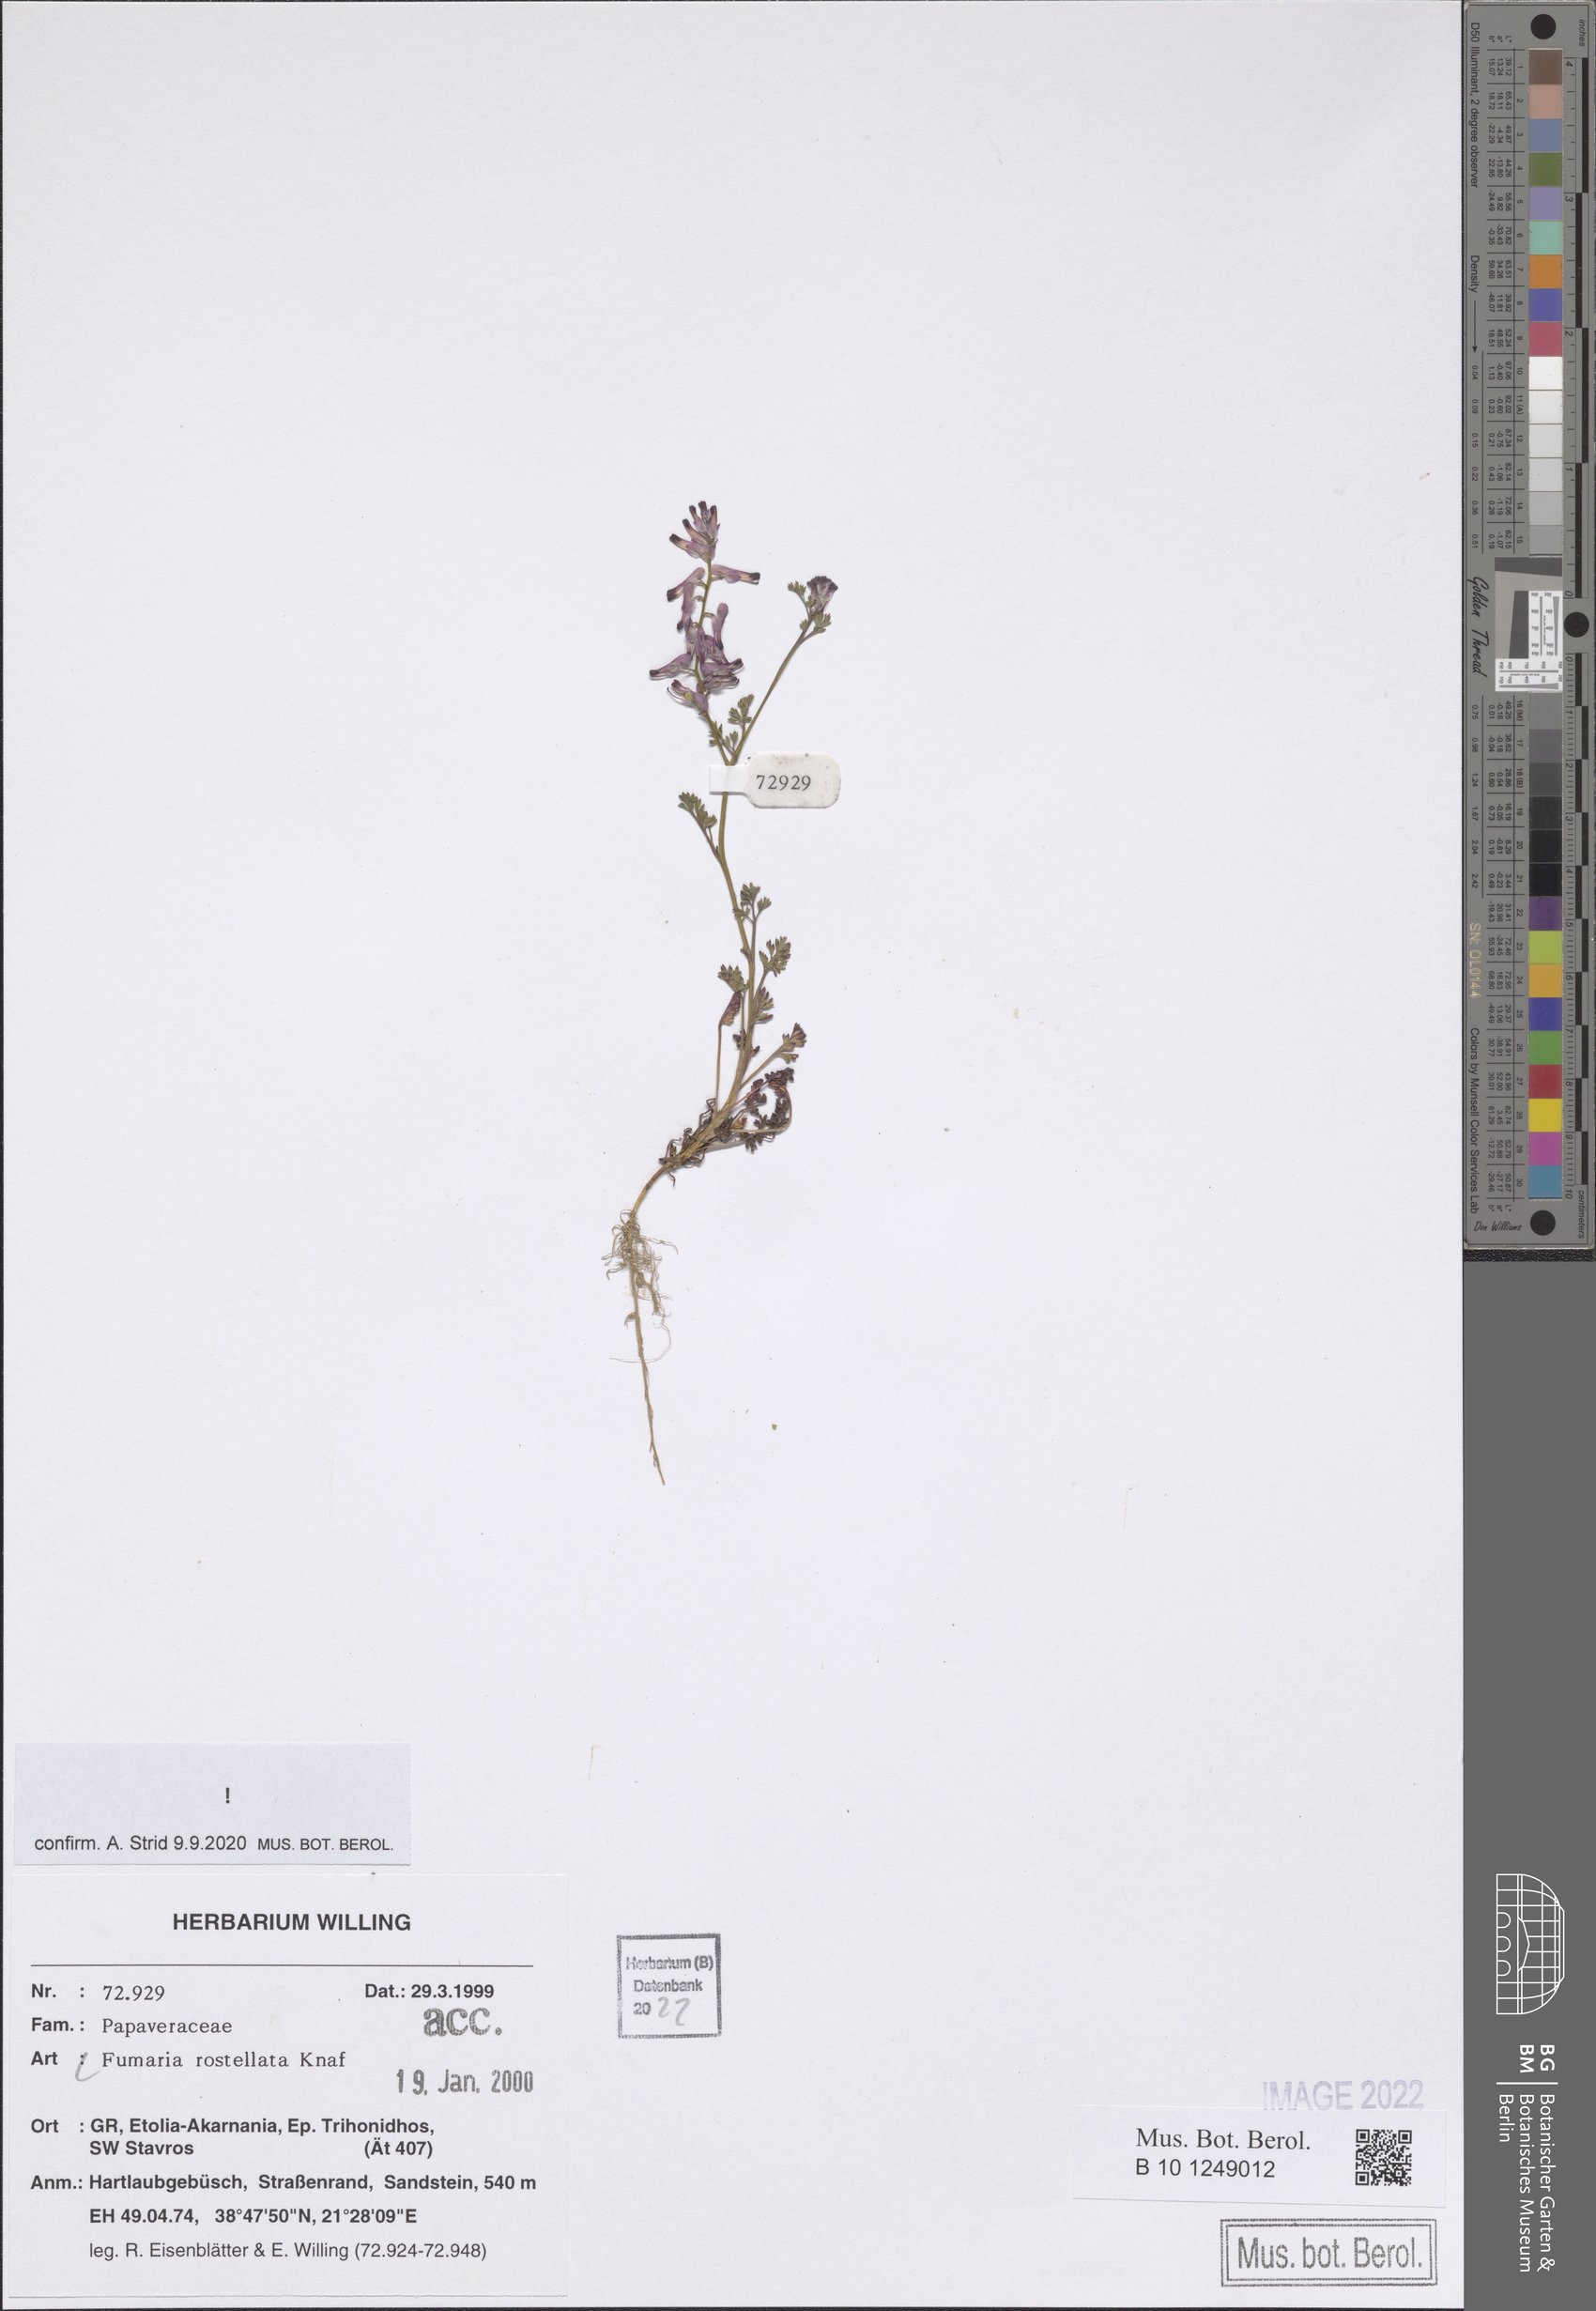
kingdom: Plantae
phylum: Tracheophyta
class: Magnoliopsida
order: Ranunculales
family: Papaveraceae
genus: Fumaria
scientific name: Fumaria rostellata
